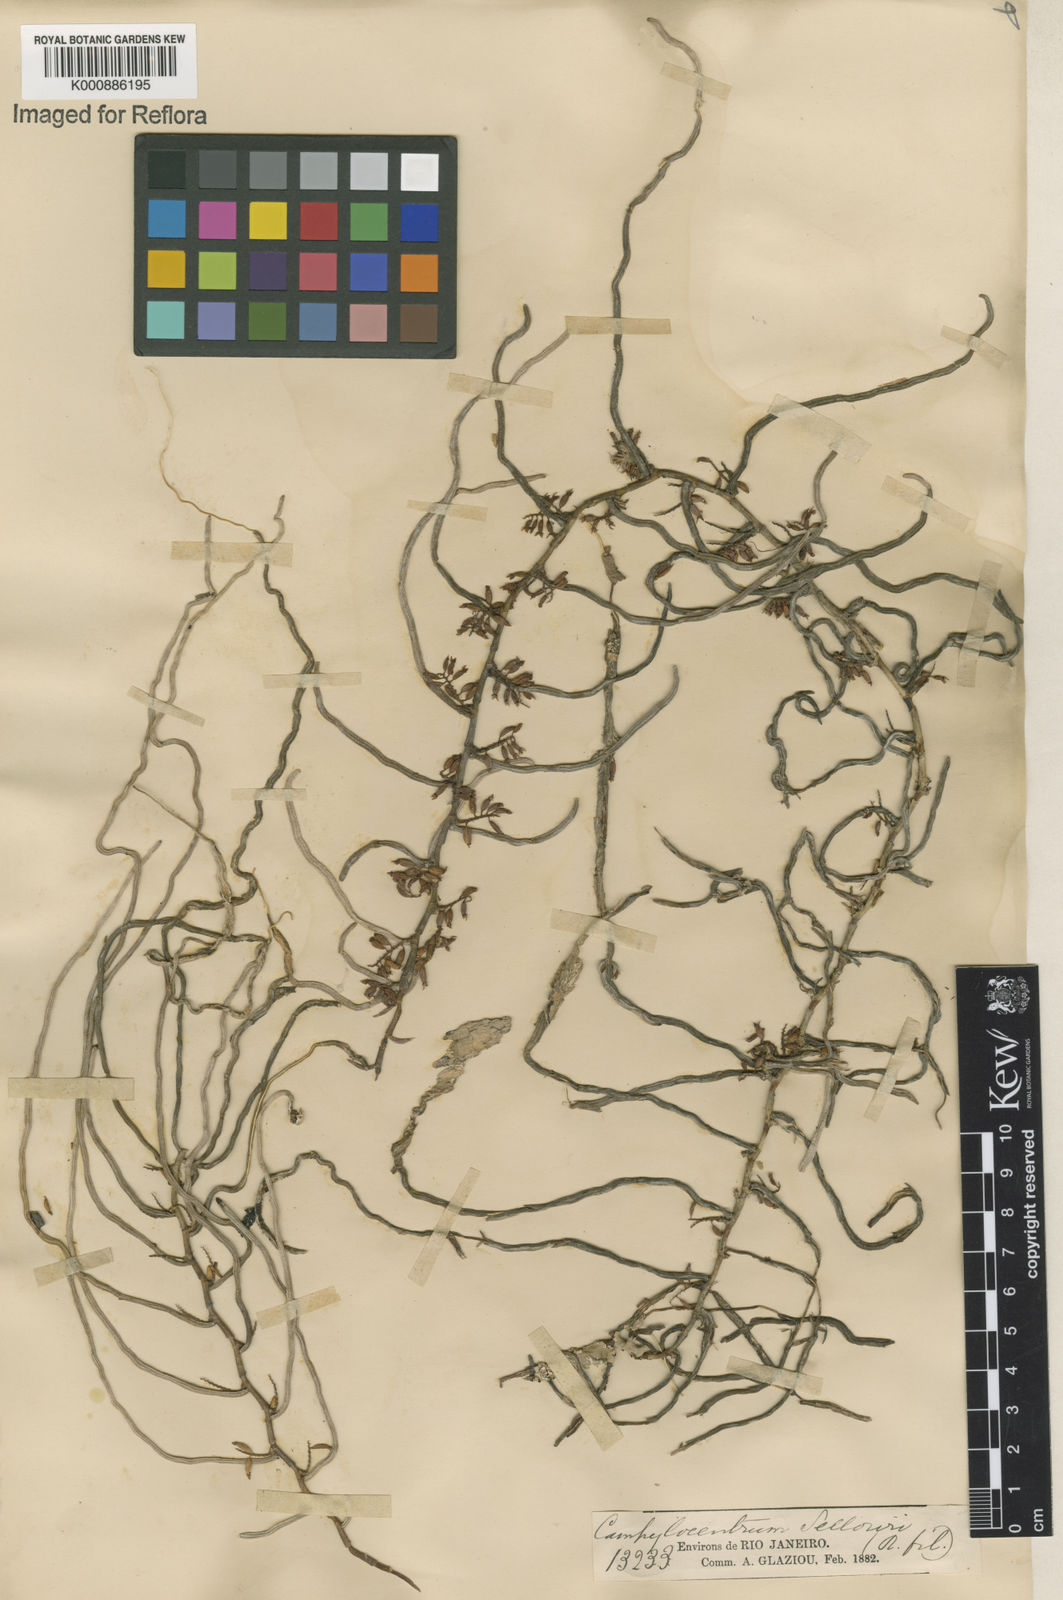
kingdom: Plantae
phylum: Tracheophyta
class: Liliopsida
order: Asparagales
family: Orchidaceae
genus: Campylocentrum
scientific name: Campylocentrum sellowii
